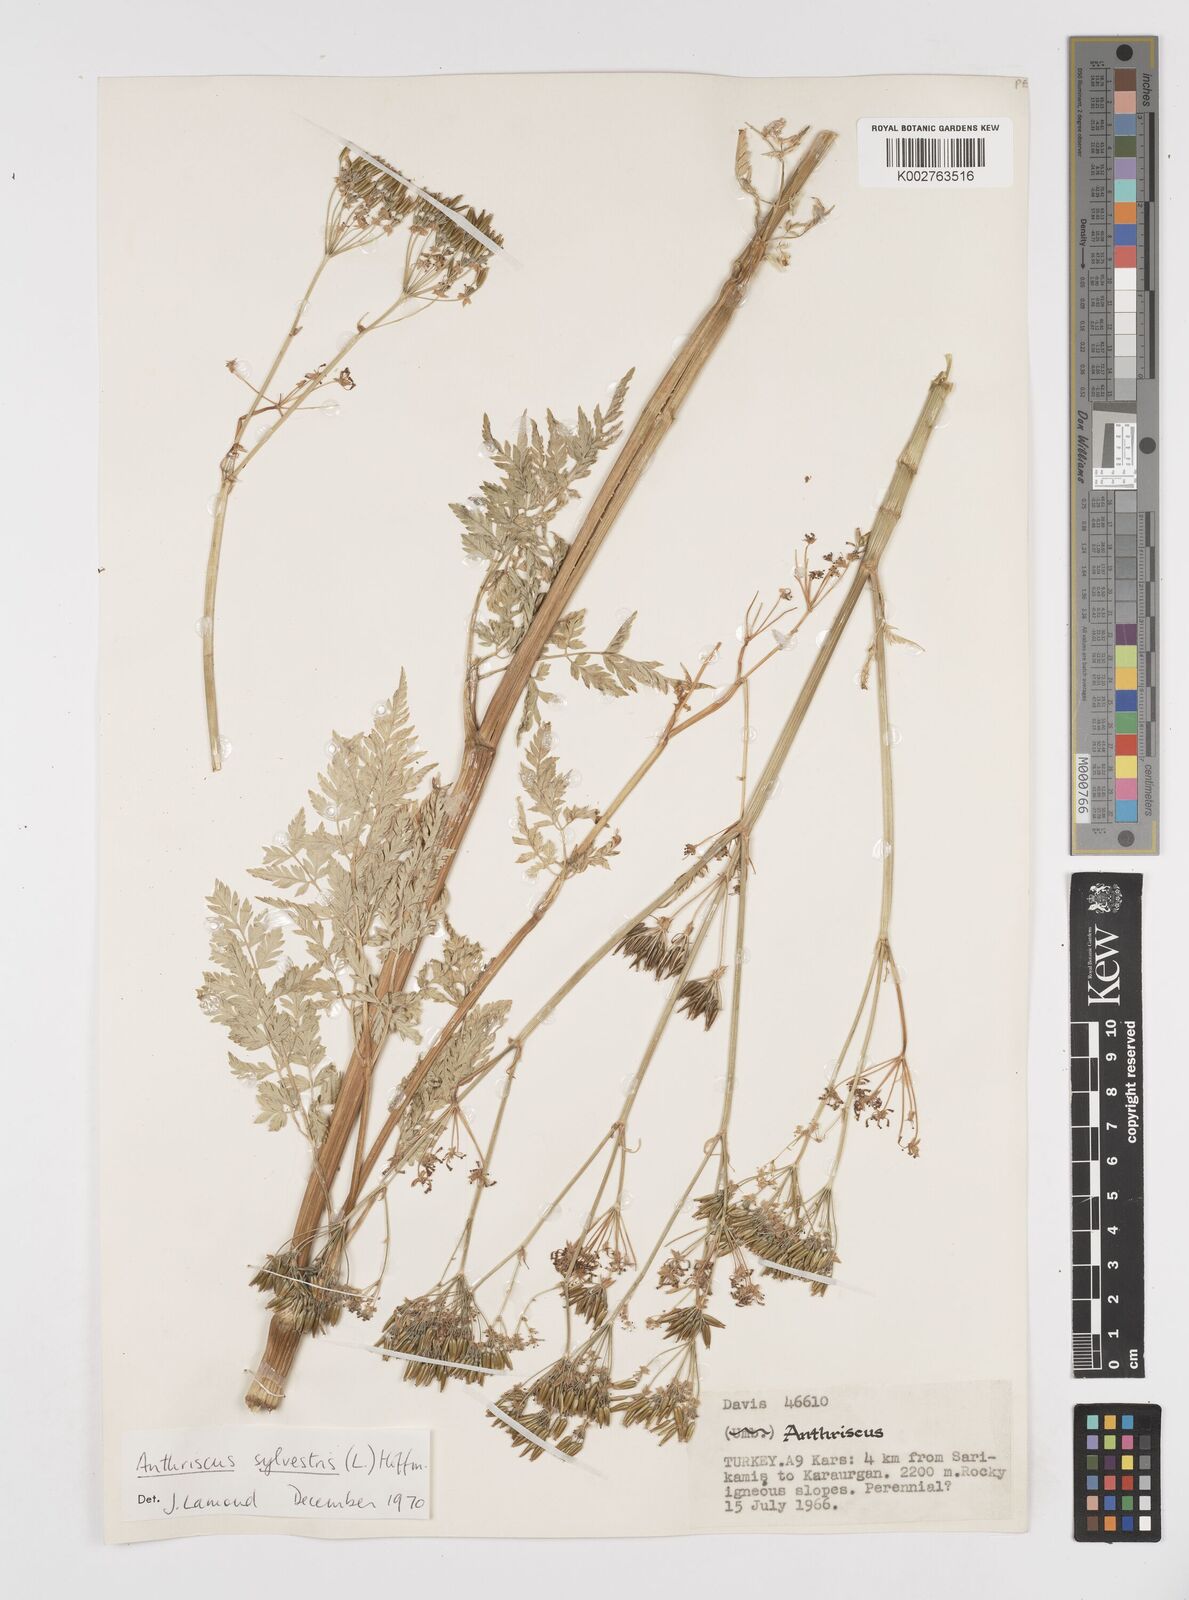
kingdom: Plantae
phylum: Tracheophyta
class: Magnoliopsida
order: Apiales
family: Apiaceae
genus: Anthriscus
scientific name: Anthriscus sylvestris
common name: Cow parsley
